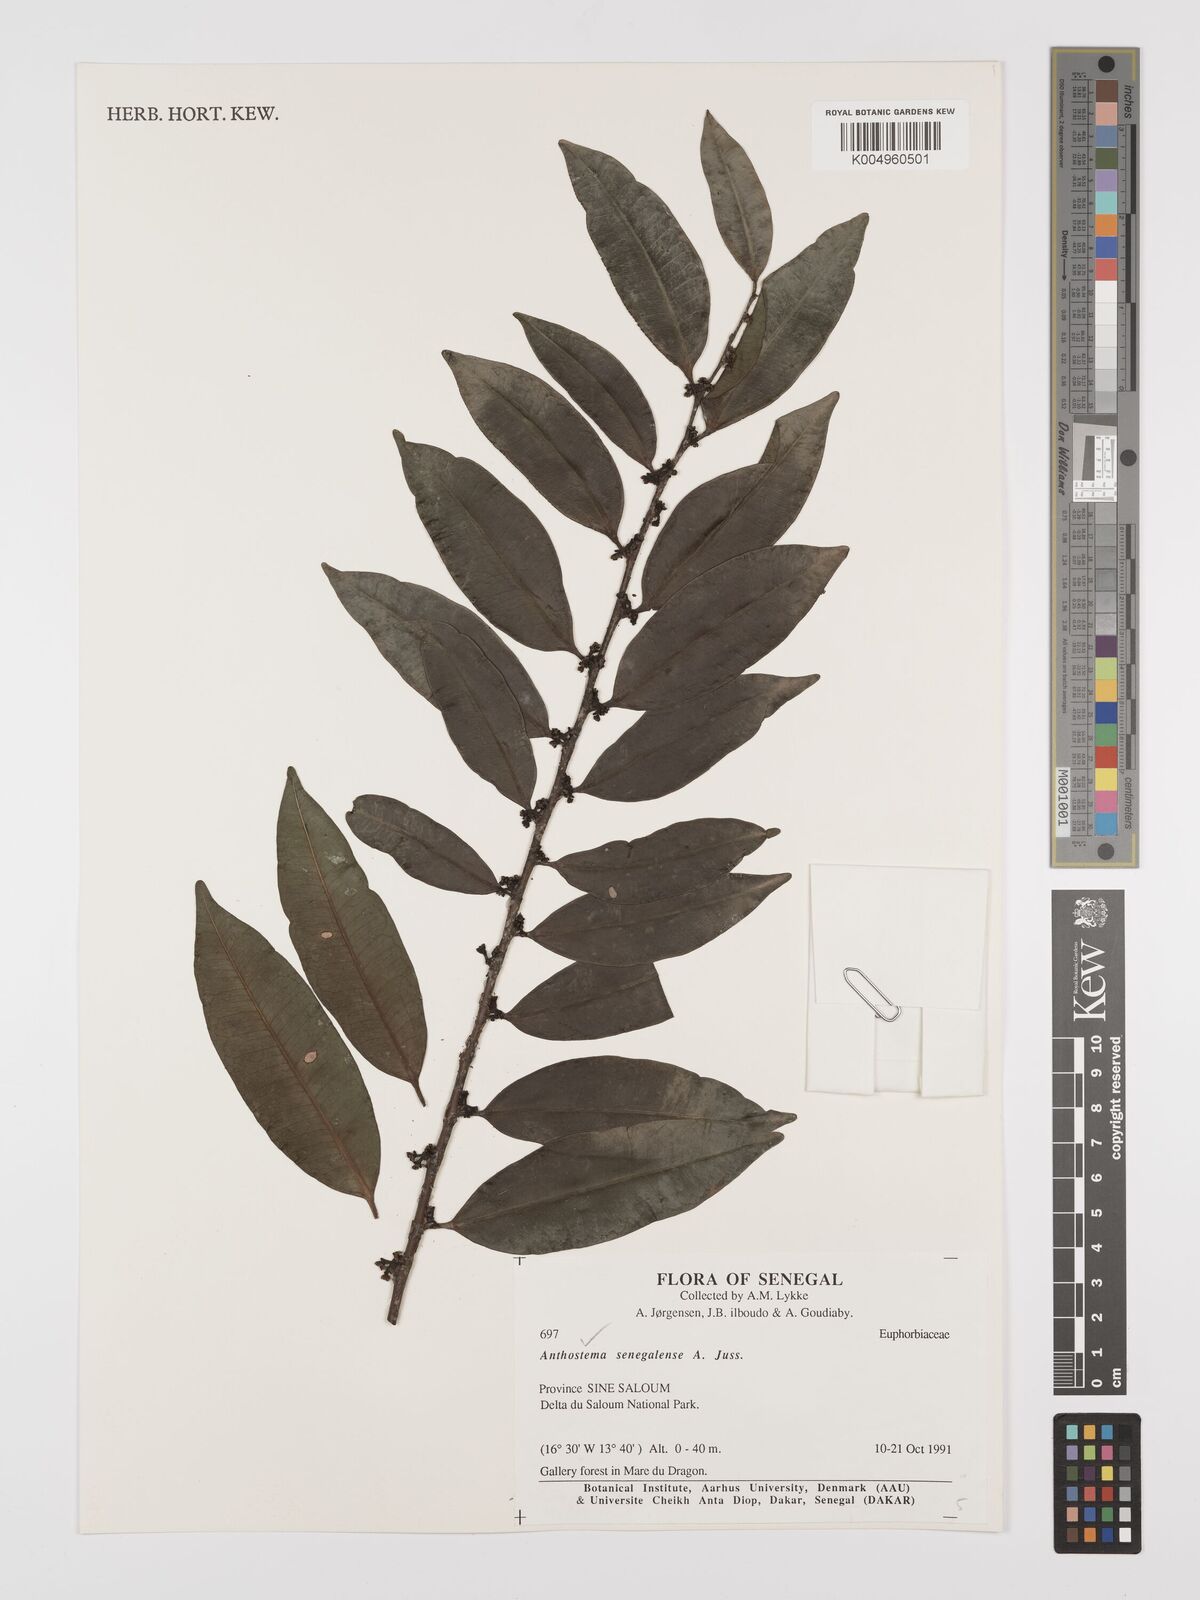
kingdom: Plantae
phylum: Tracheophyta
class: Magnoliopsida
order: Malpighiales
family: Euphorbiaceae
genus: Anthostema
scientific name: Anthostema senegalense
